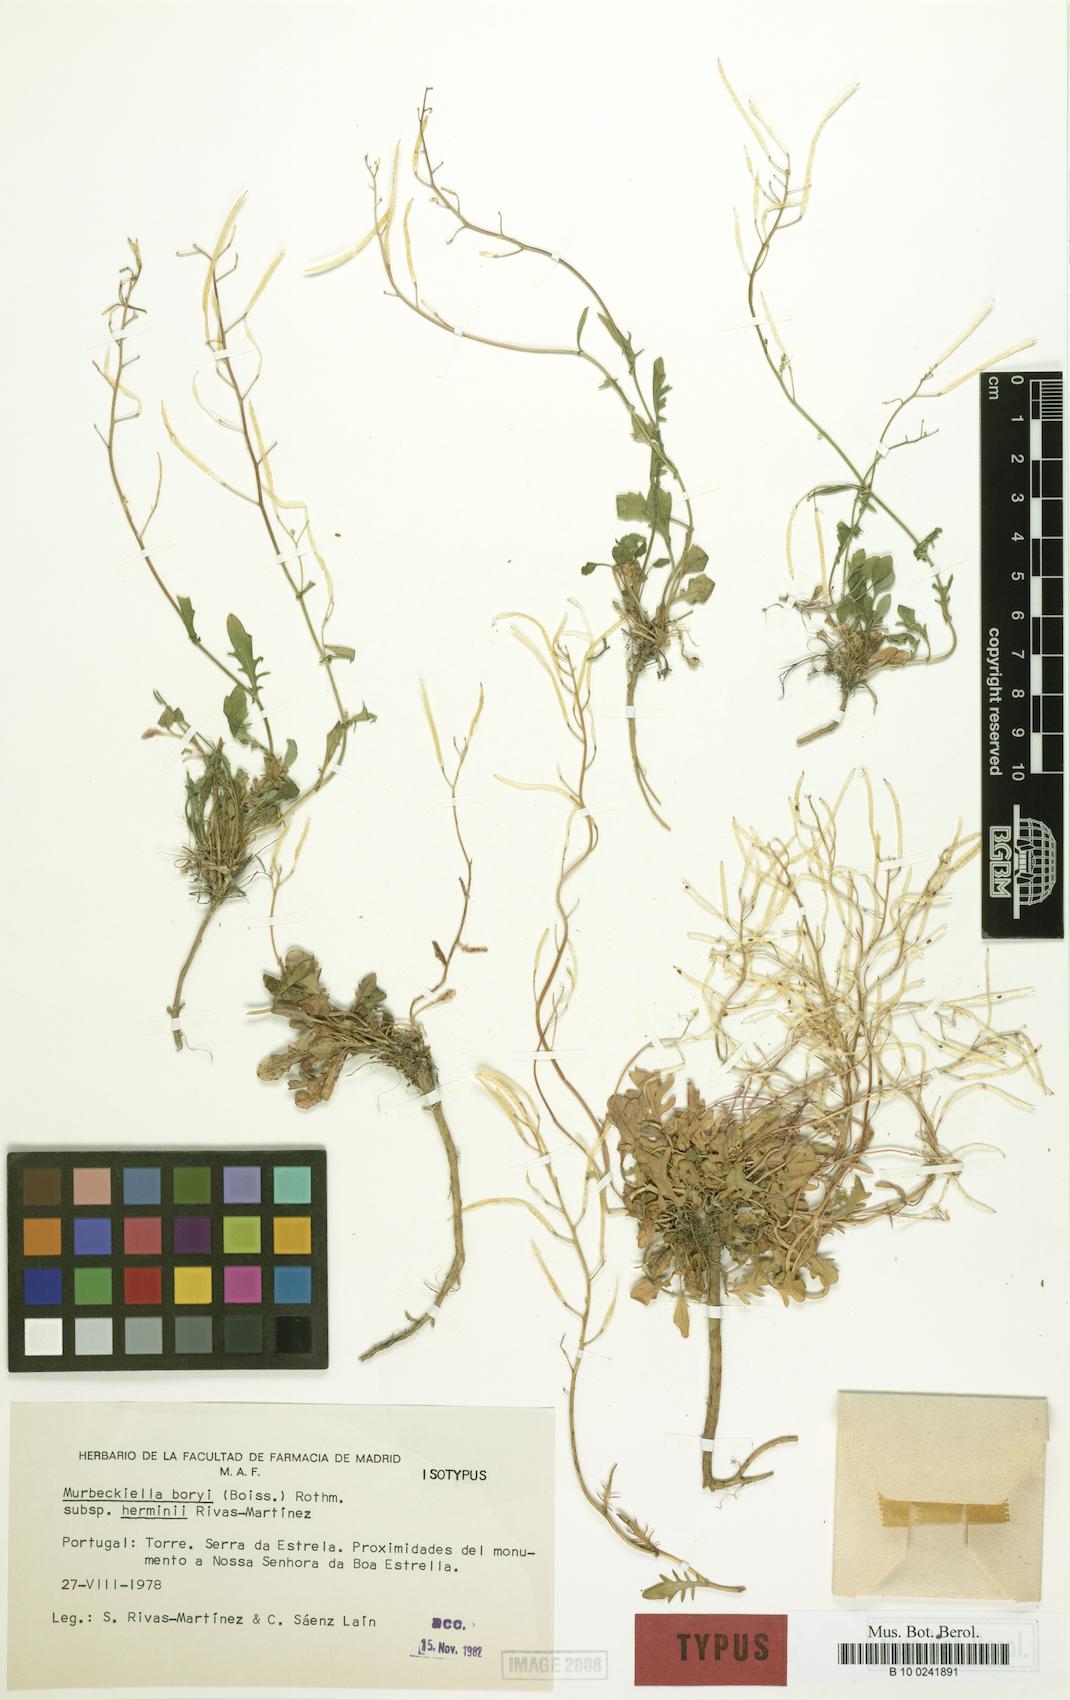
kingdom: Plantae
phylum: Tracheophyta
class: Magnoliopsida
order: Brassicales
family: Brassicaceae
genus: Murbeckiella
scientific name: Murbeckiella boryi
